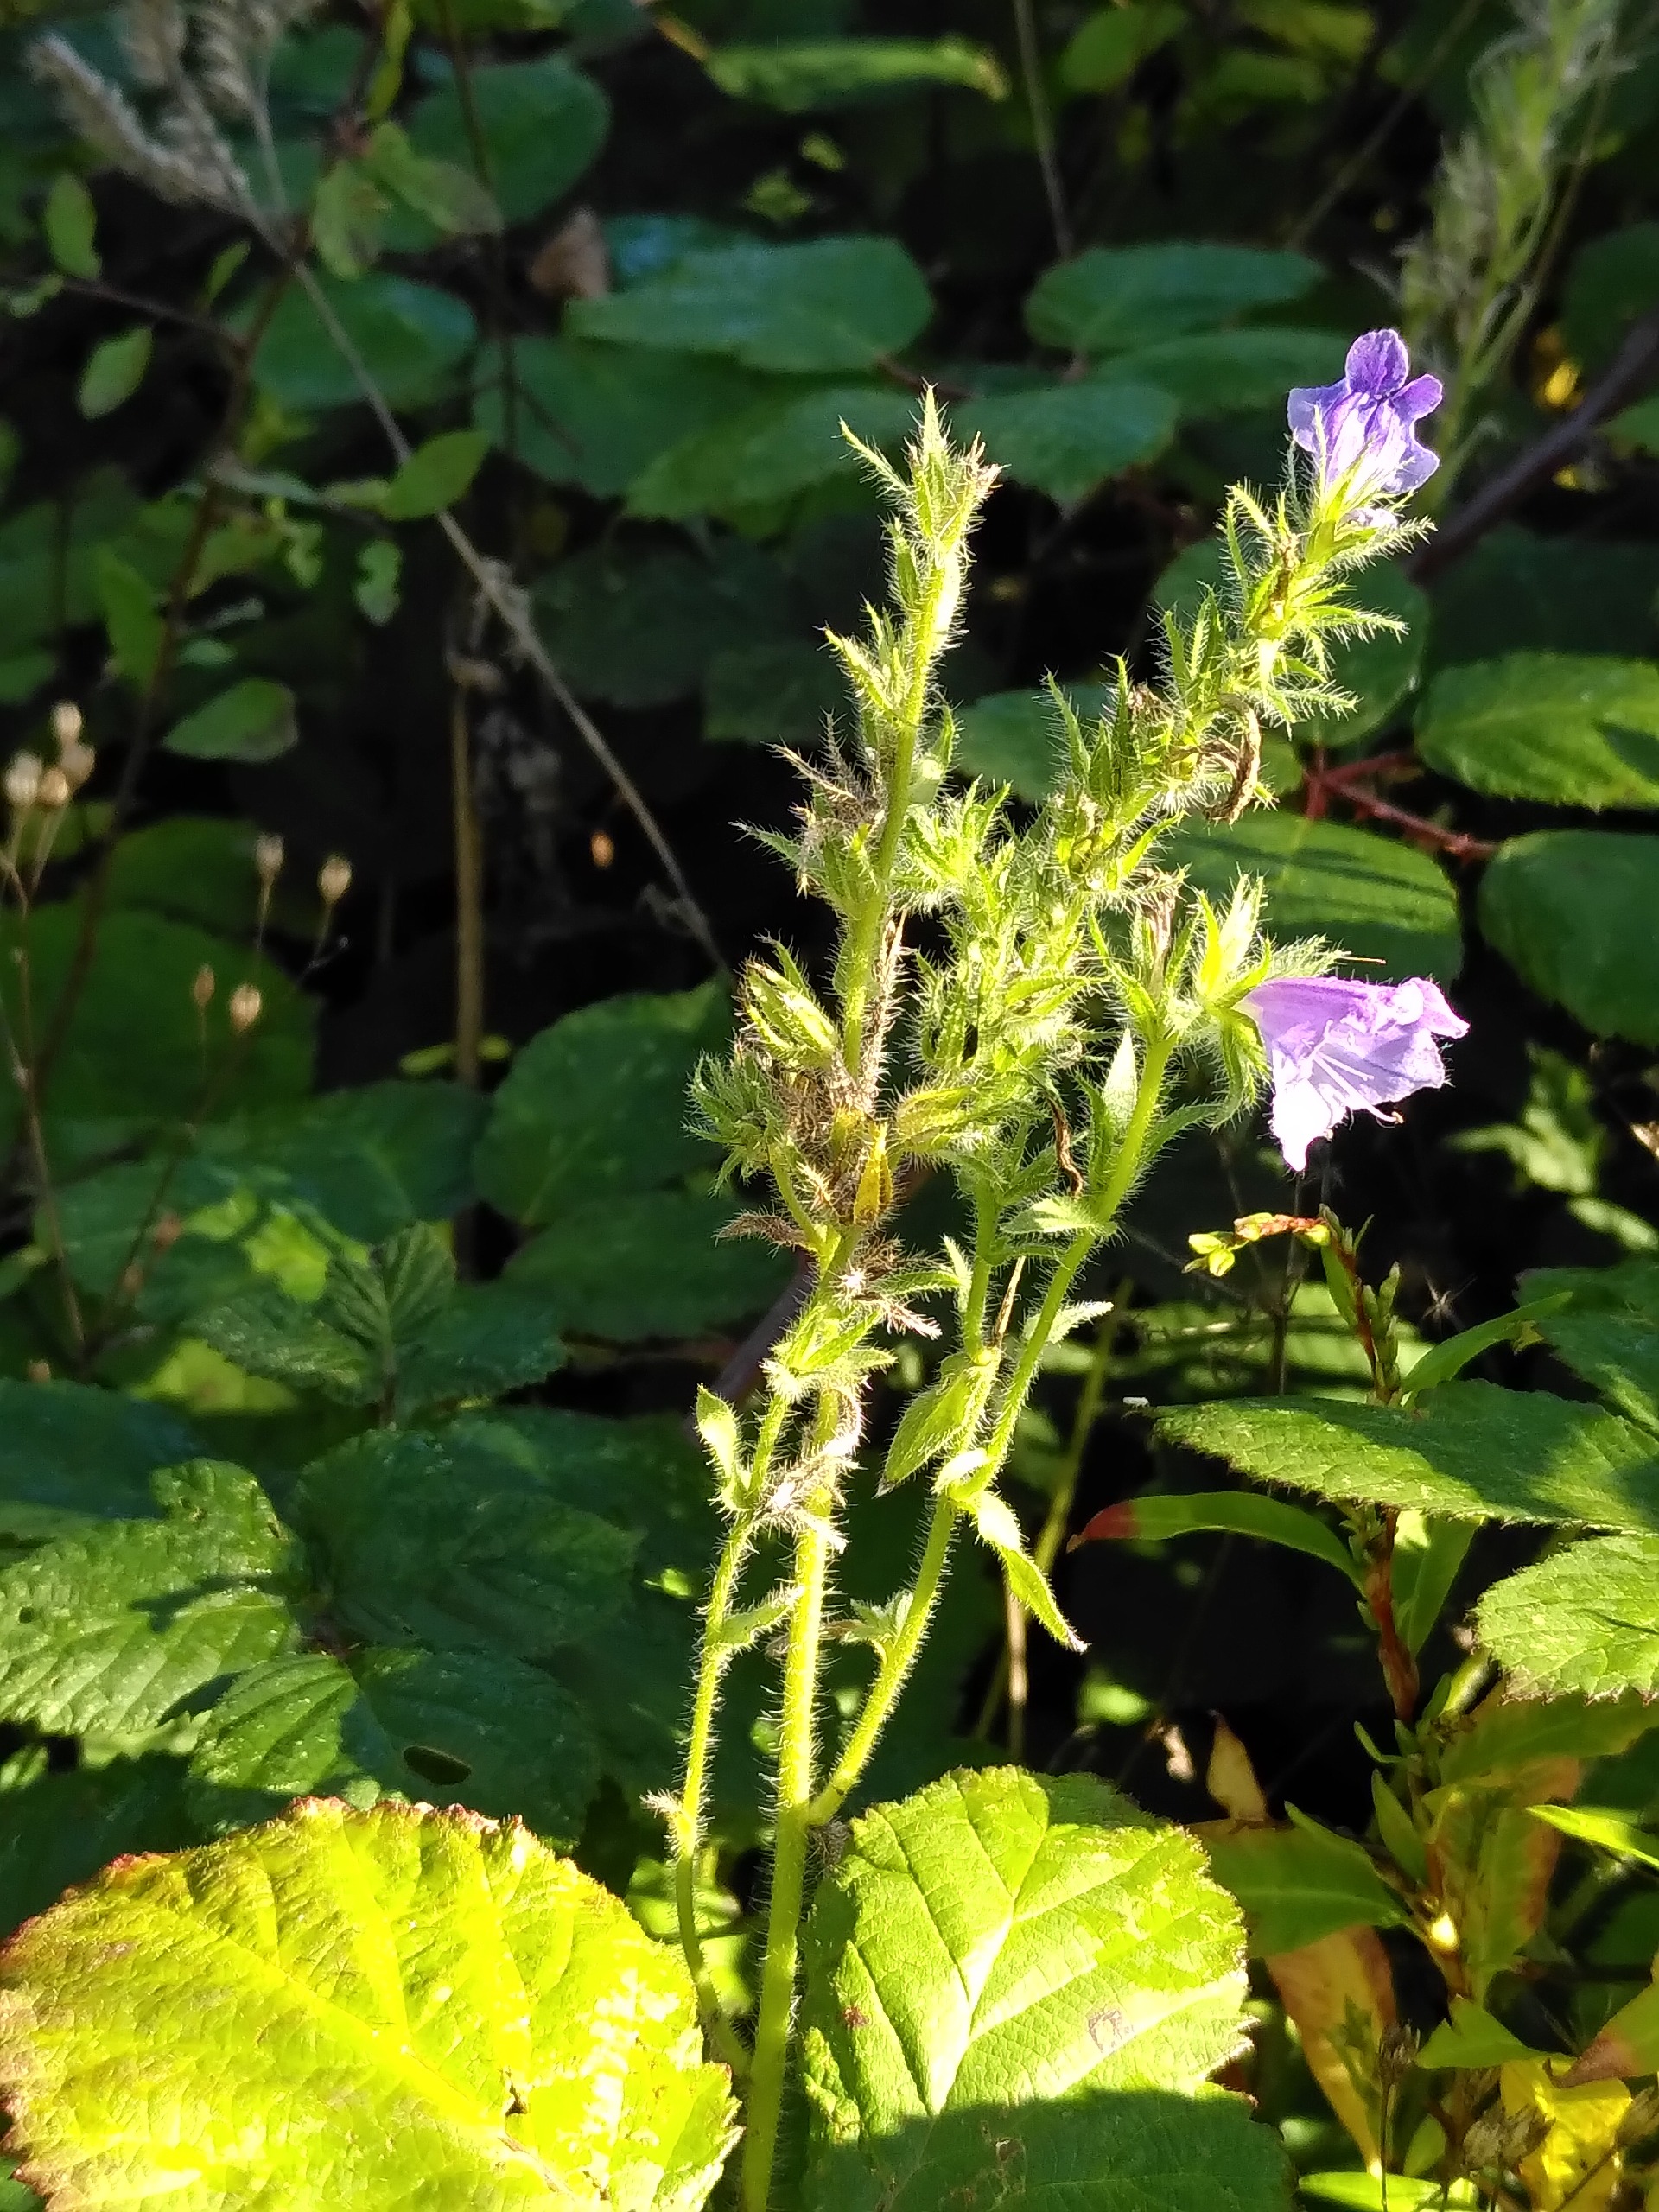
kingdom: Plantae
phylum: Tracheophyta
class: Magnoliopsida
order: Boraginales
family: Boraginaceae
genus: Echium
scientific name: Echium plantagineum
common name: Vejbred-slangehoved
